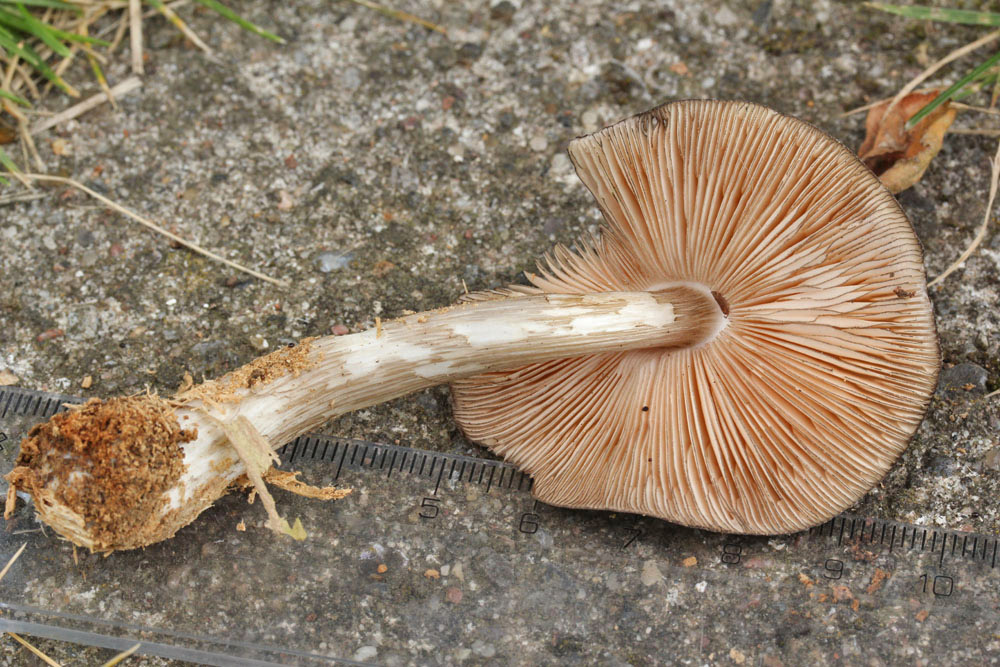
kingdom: Fungi
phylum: Basidiomycota
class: Agaricomycetes
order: Agaricales
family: Pluteaceae
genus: Pluteus
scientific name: Pluteus atromarginatus
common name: sortrandet skærmhat
